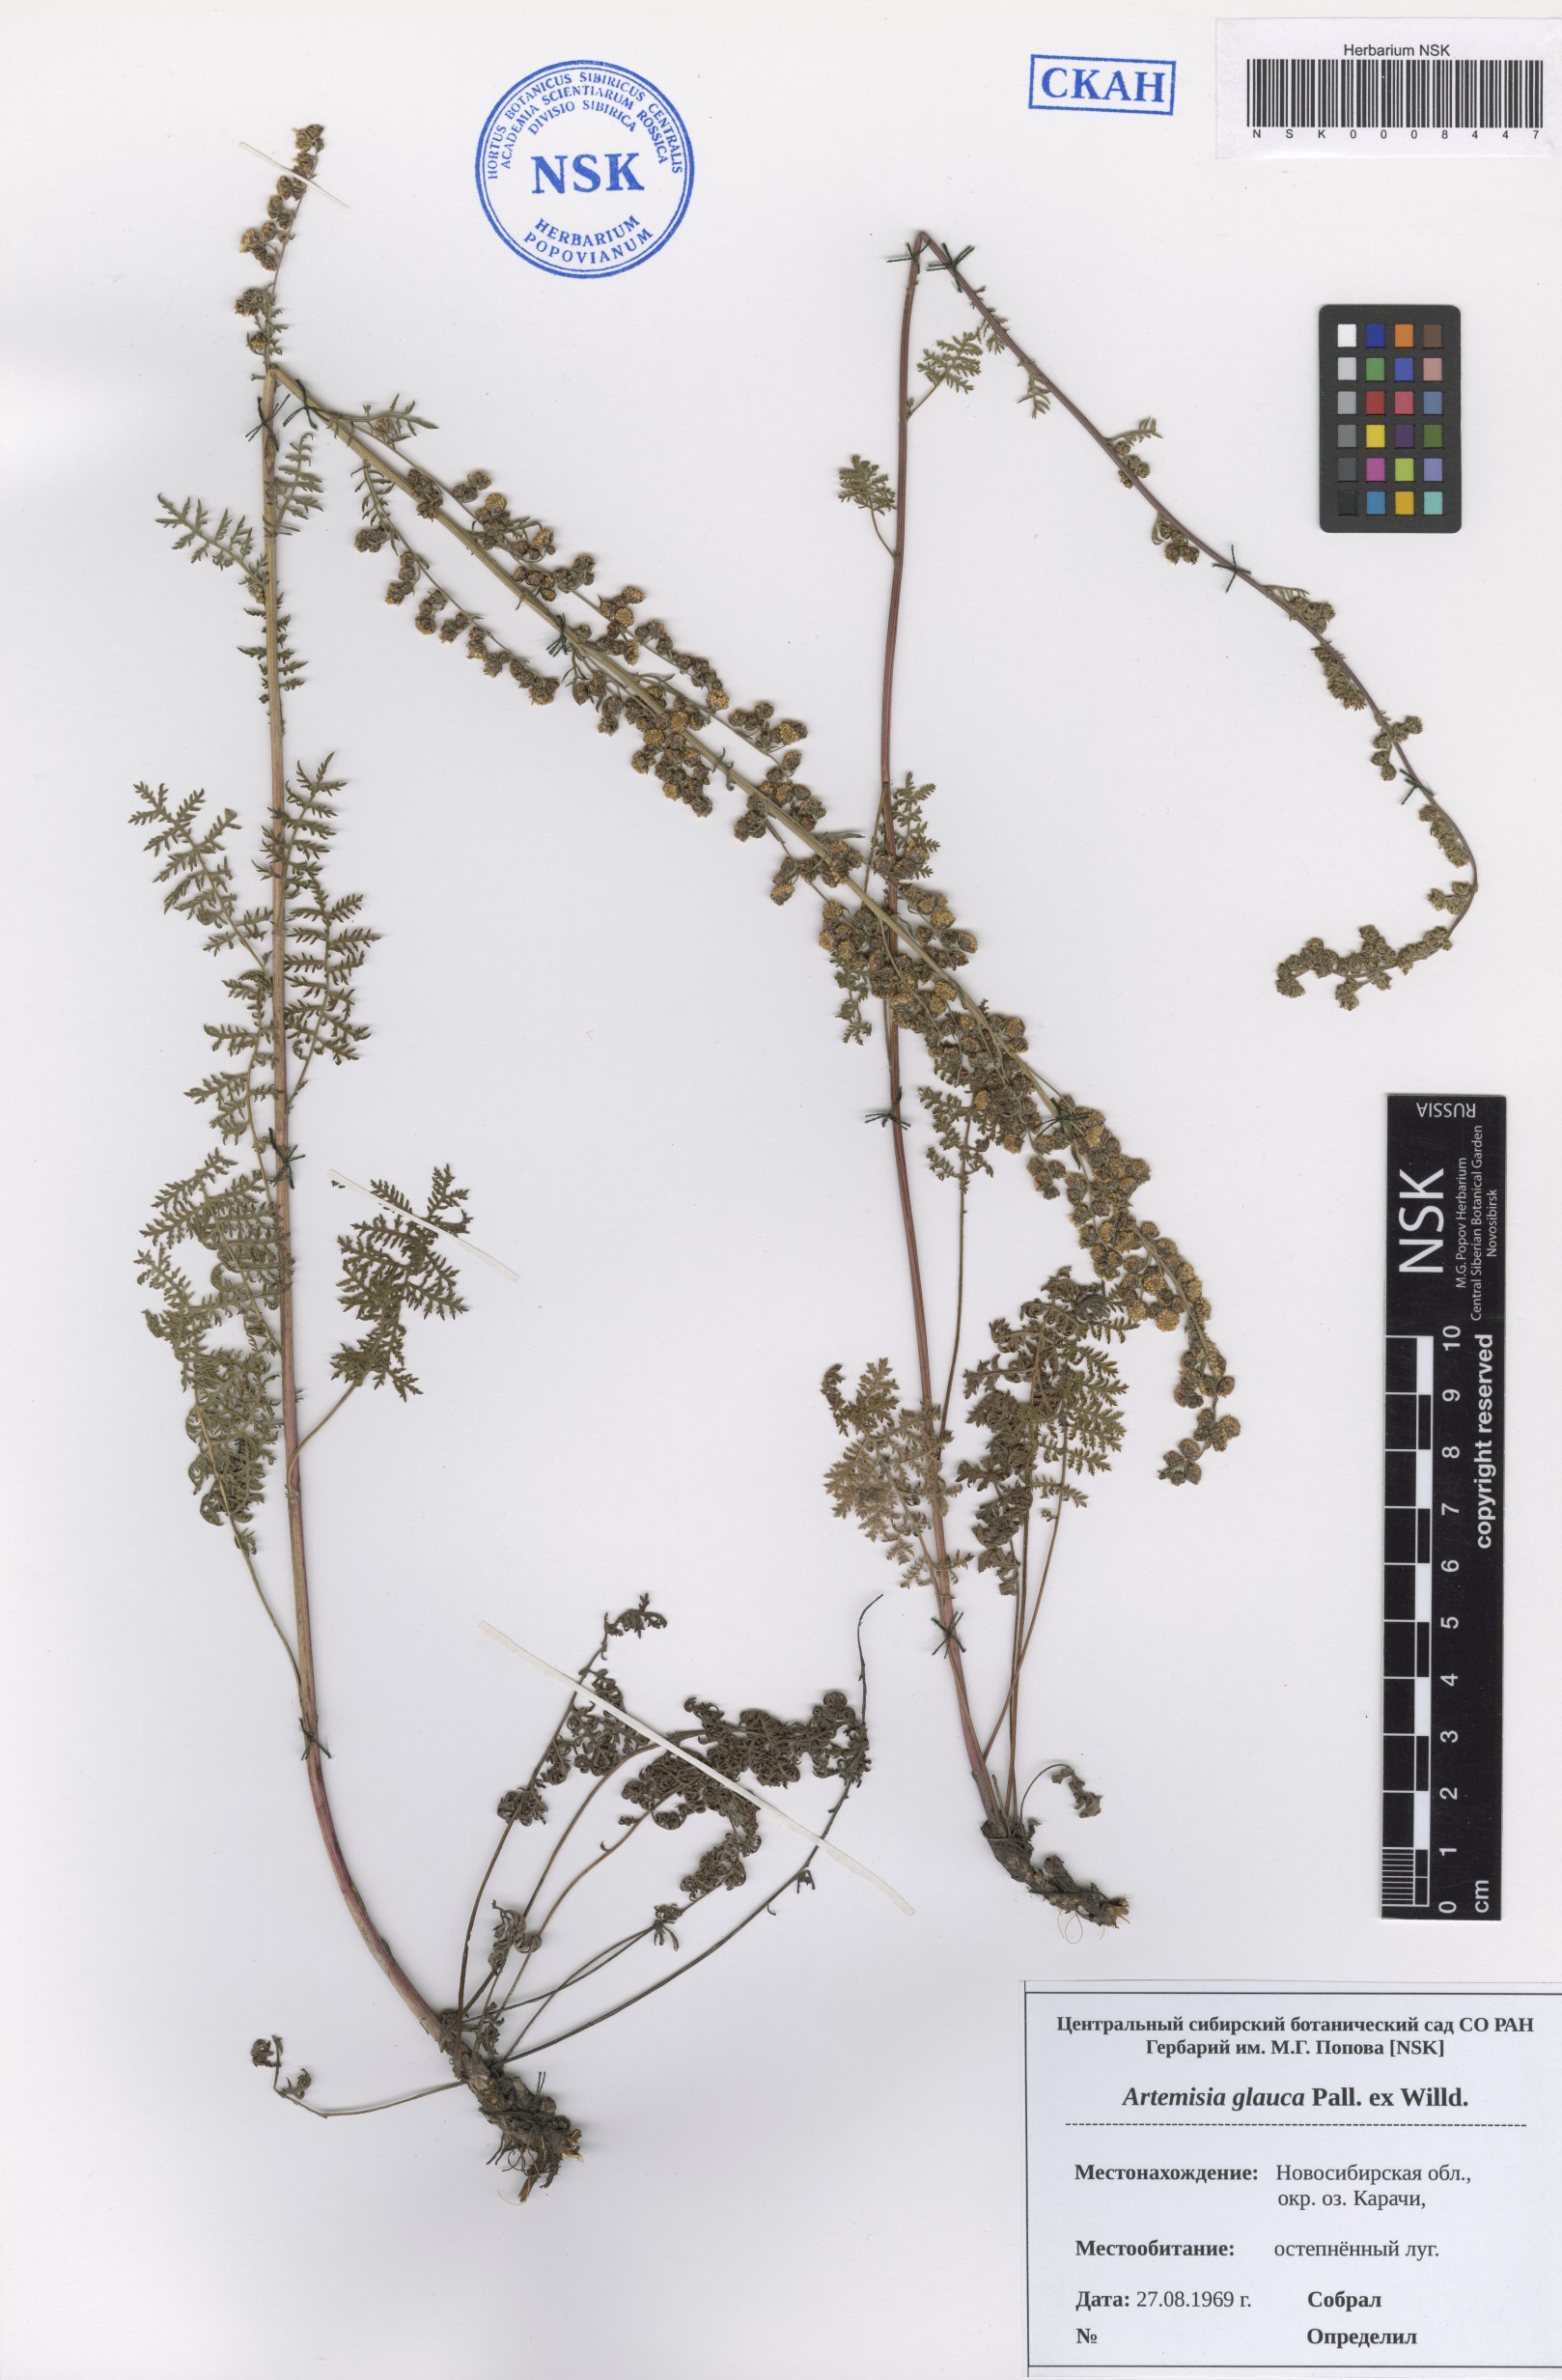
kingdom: Plantae
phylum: Tracheophyta
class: Magnoliopsida
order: Asterales
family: Asteraceae
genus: Artemisia
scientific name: Artemisia glauca
